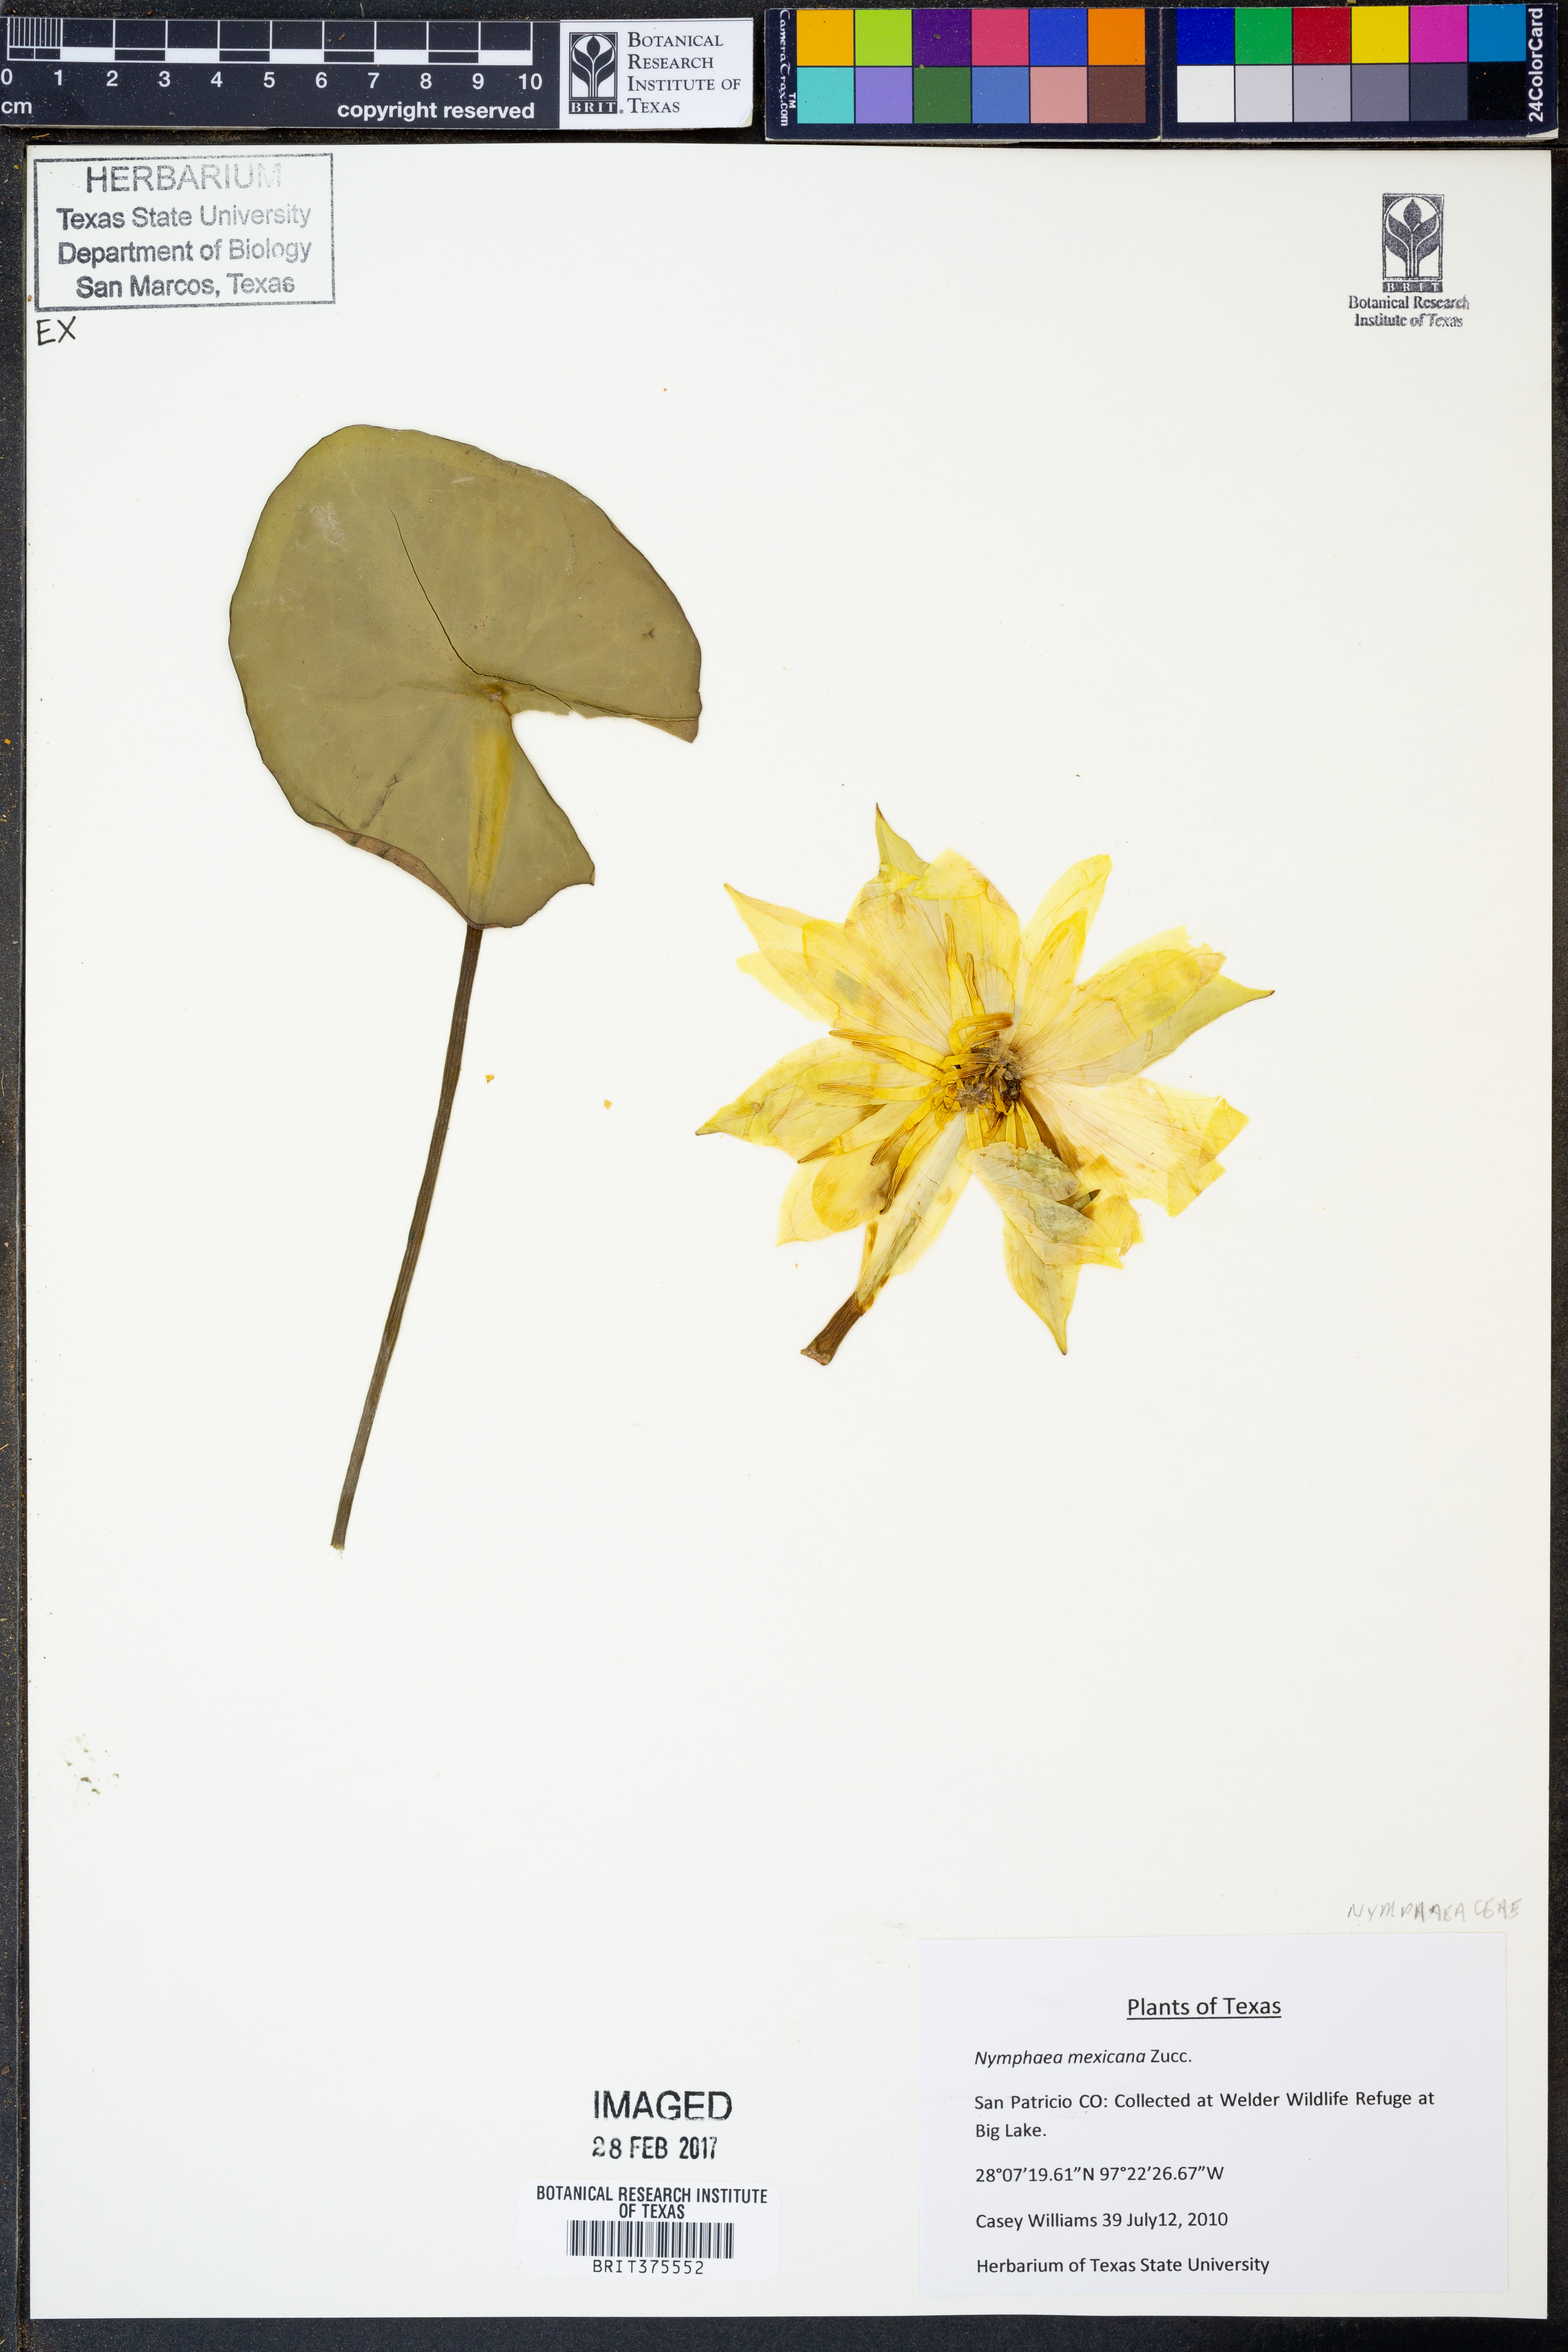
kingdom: Plantae
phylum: Tracheophyta
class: Magnoliopsida
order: Nymphaeales
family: Nymphaeaceae
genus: Nymphaea
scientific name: Nymphaea mexicana
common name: Banana water-lily
